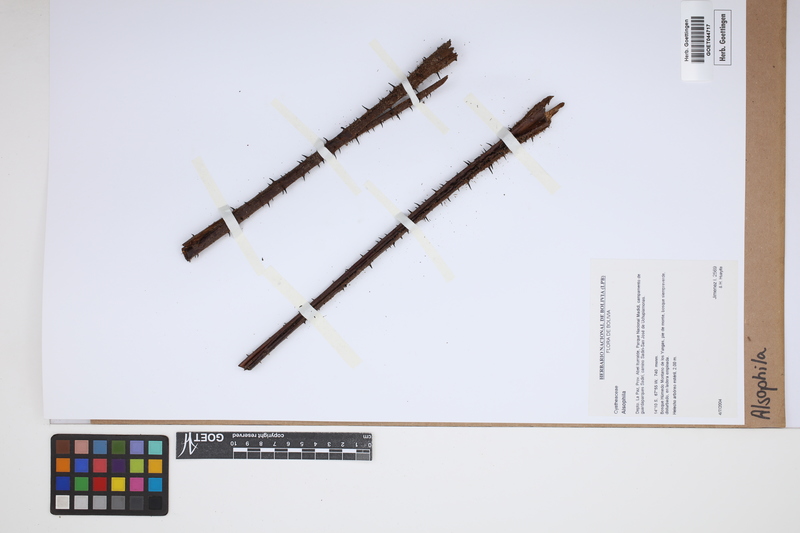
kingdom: Plantae
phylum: Tracheophyta
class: Polypodiopsida
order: Cyatheales
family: Cyatheaceae
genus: Alsophila
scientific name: Alsophila
